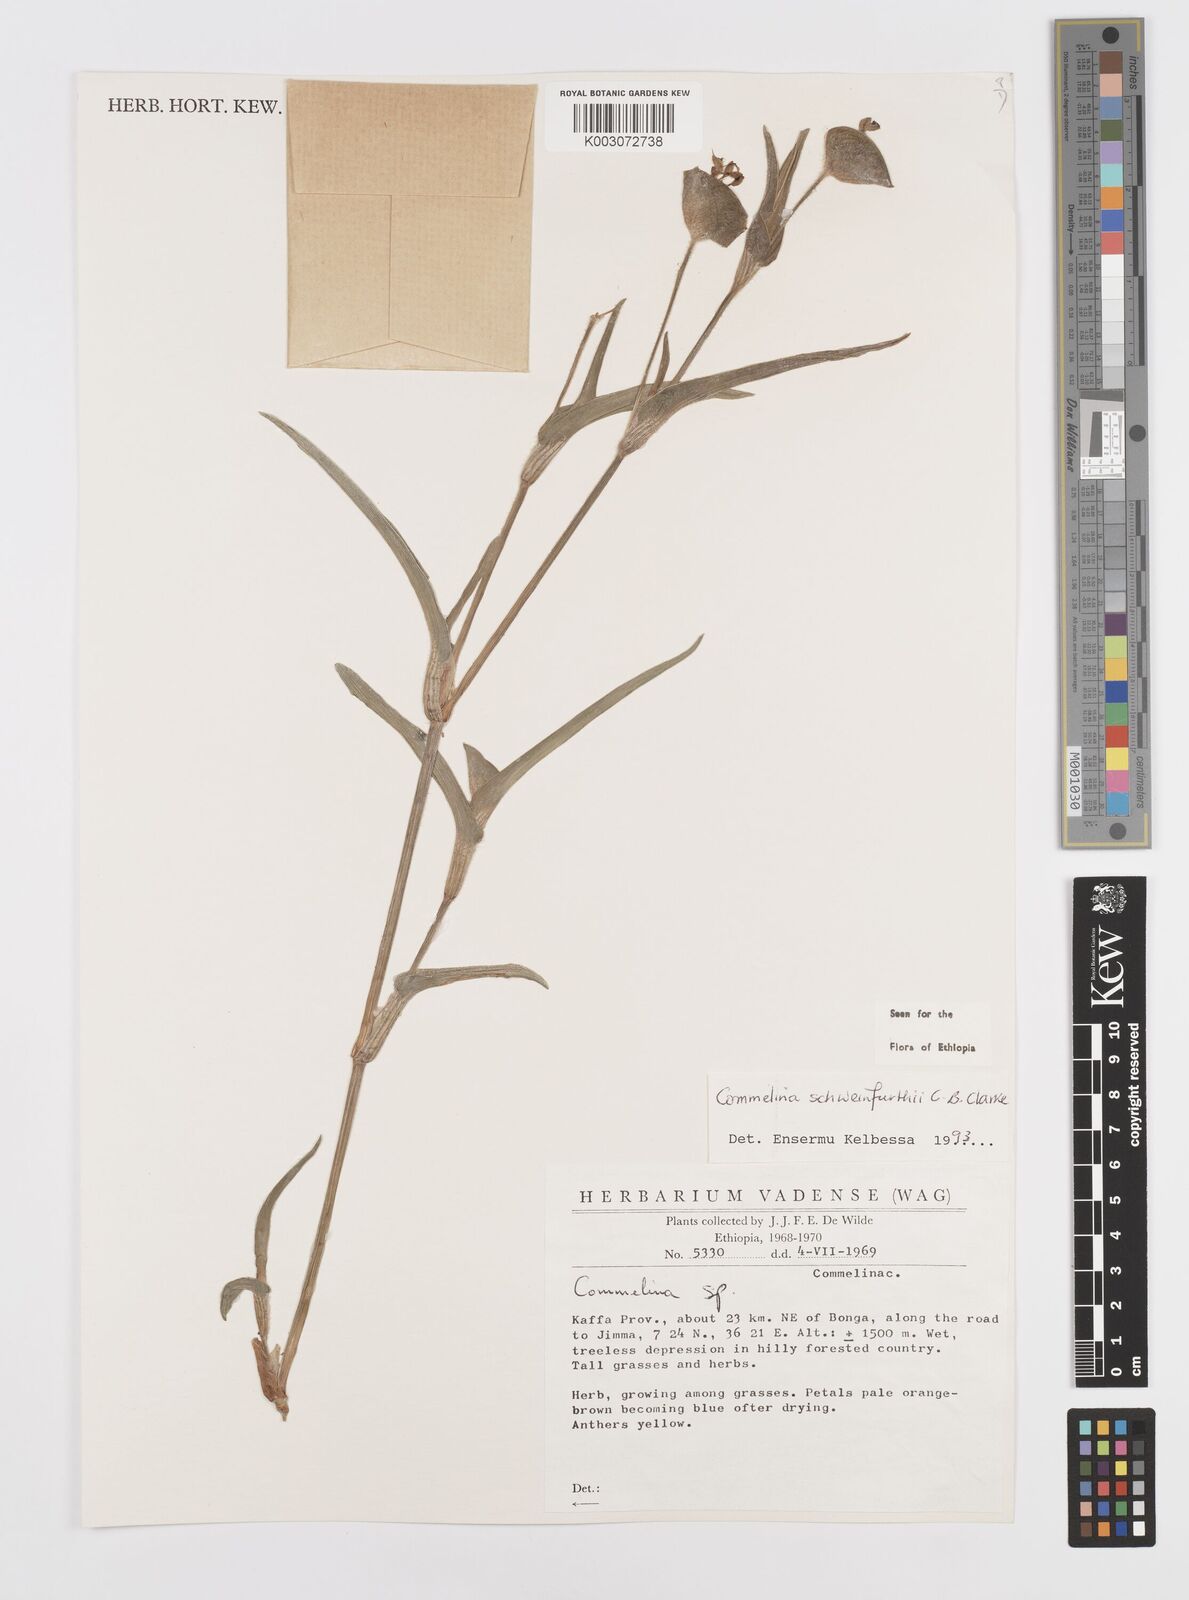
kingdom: Plantae
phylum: Tracheophyta
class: Liliopsida
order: Commelinales
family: Commelinaceae
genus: Commelina
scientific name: Commelina schweinfurthii
